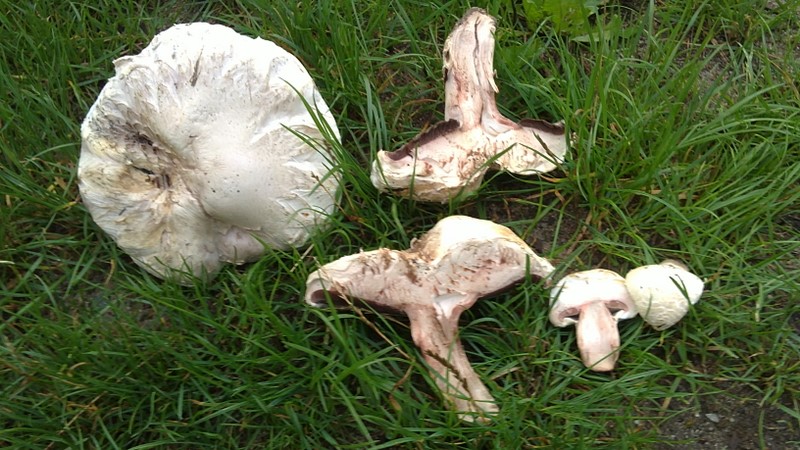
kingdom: Fungi
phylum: Basidiomycota
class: Agaricomycetes
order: Agaricales
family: Agaricaceae
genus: Agaricus
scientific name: Agaricus bernardii
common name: strandengs-champignon
